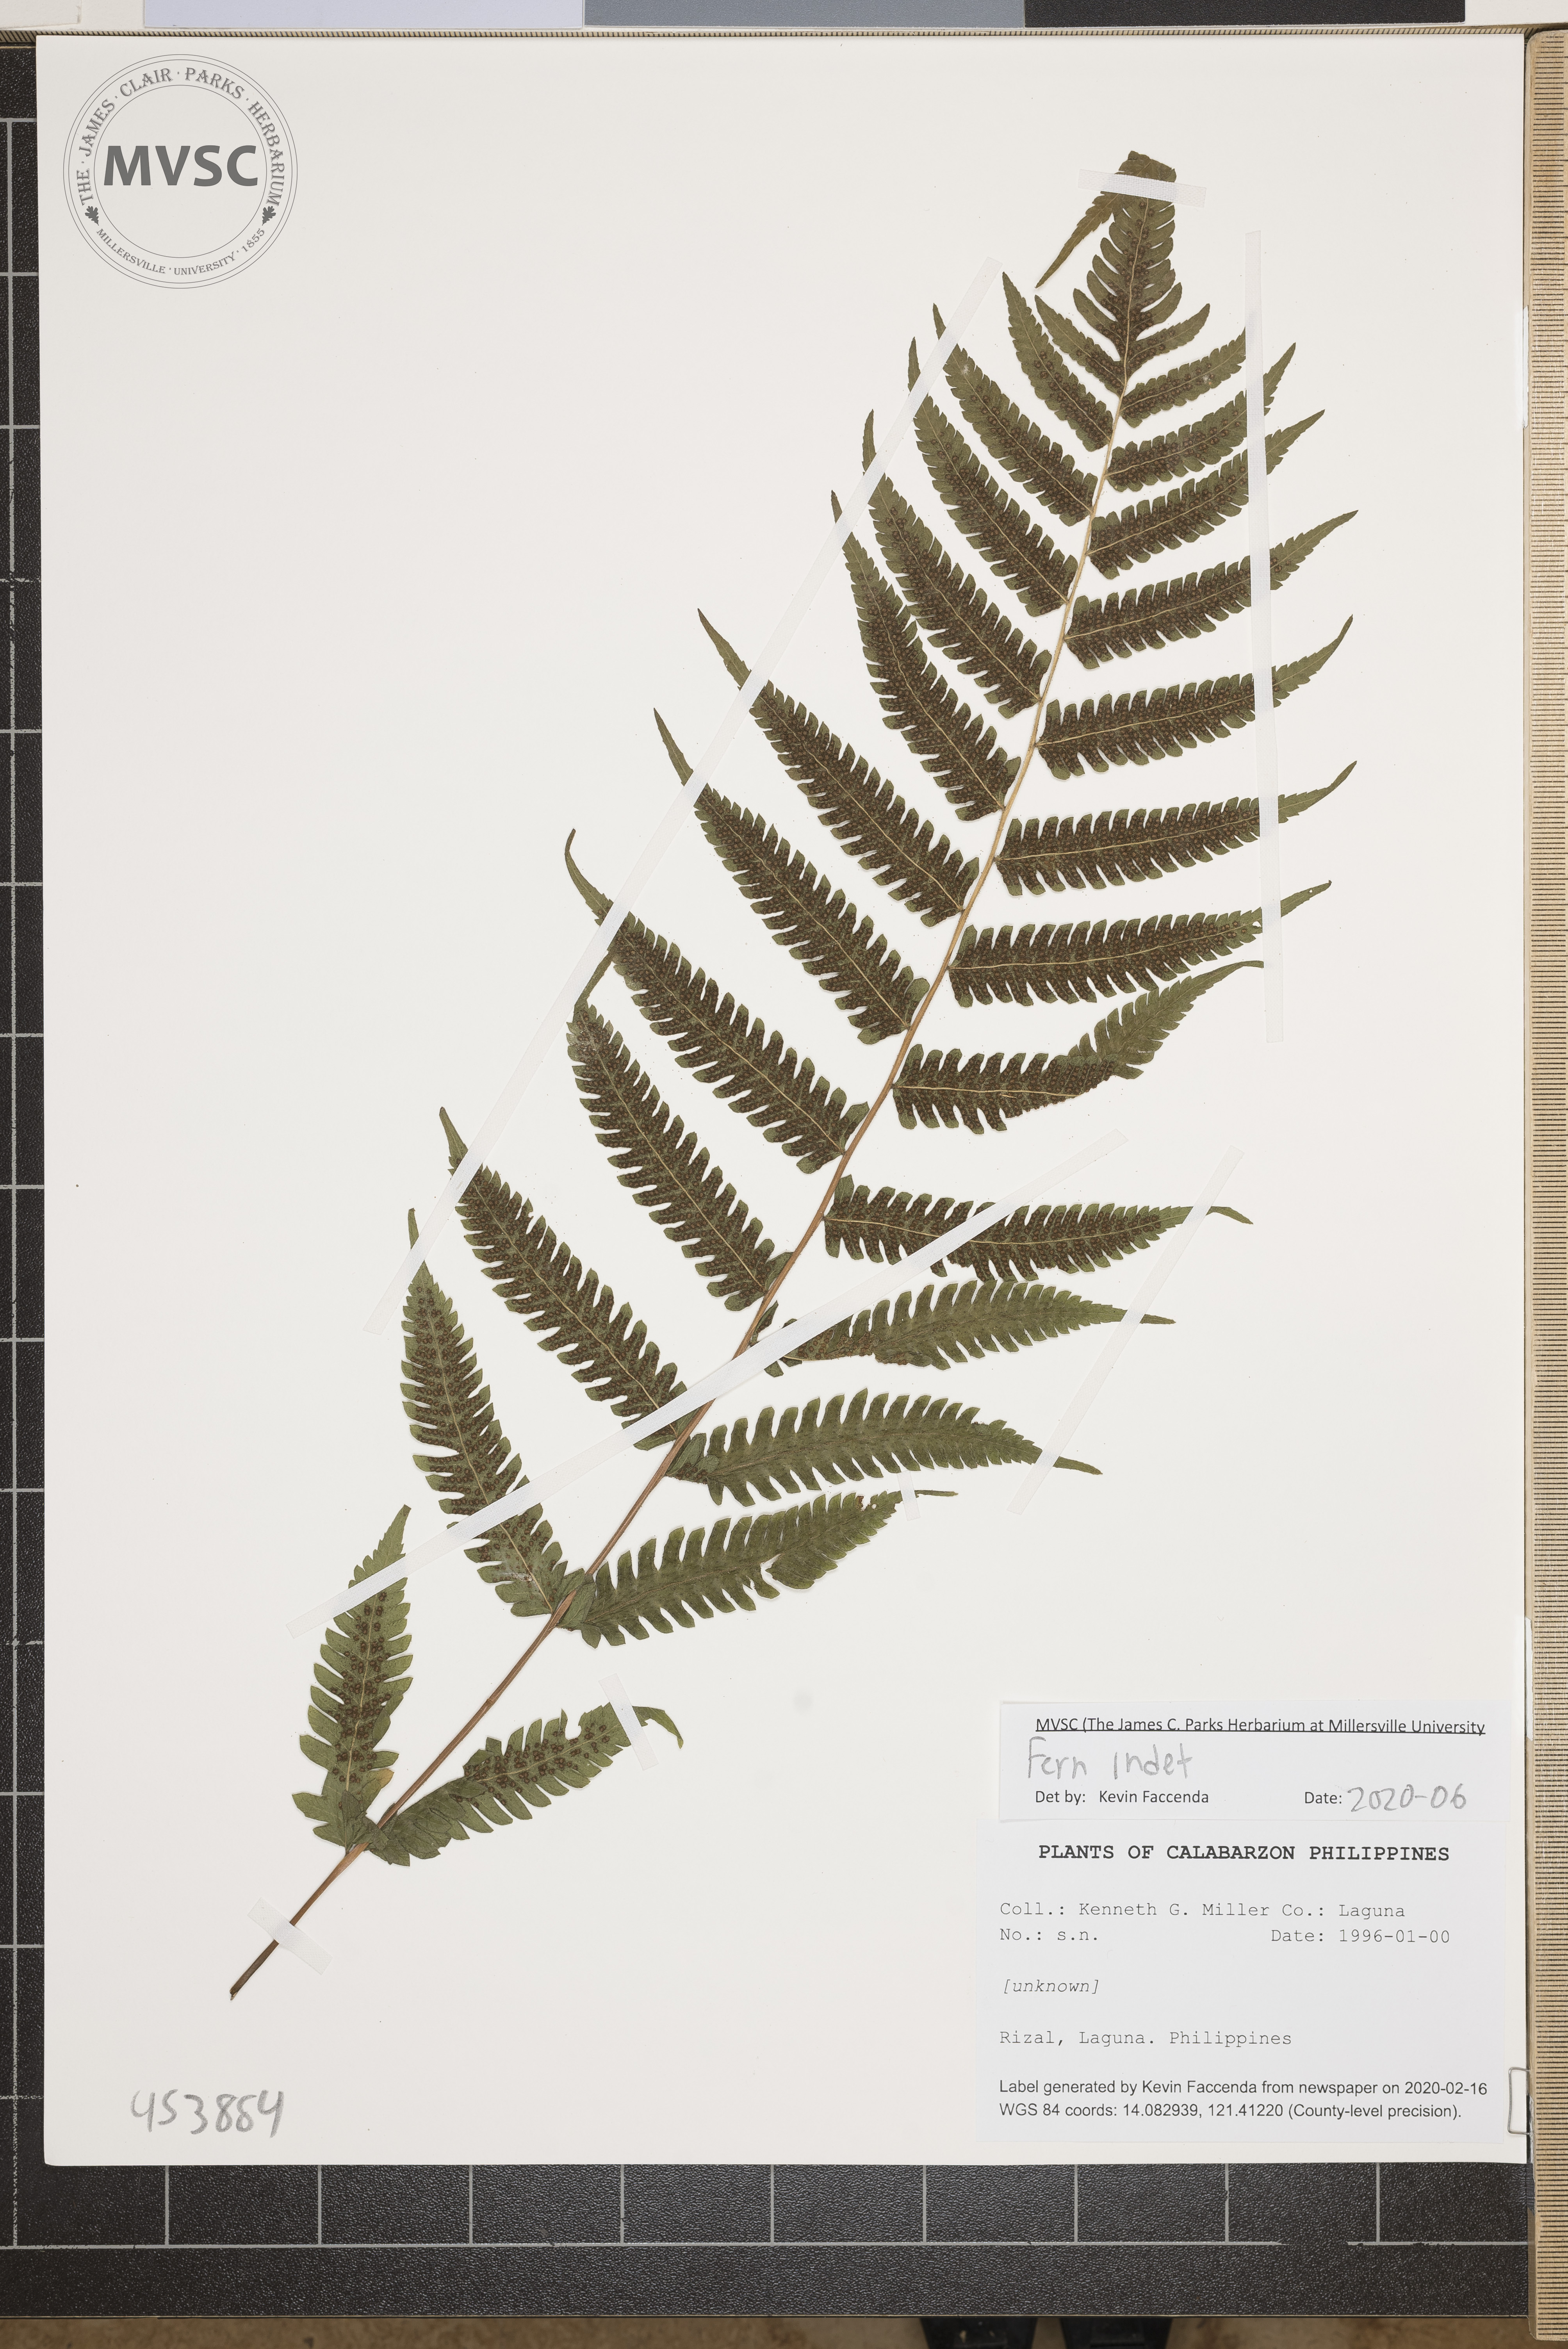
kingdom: Plantae
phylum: Tracheophyta
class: Polypodiopsida
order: Polypodiales
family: Dryopteridaceae
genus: Dryopteris
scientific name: Dryopteris
